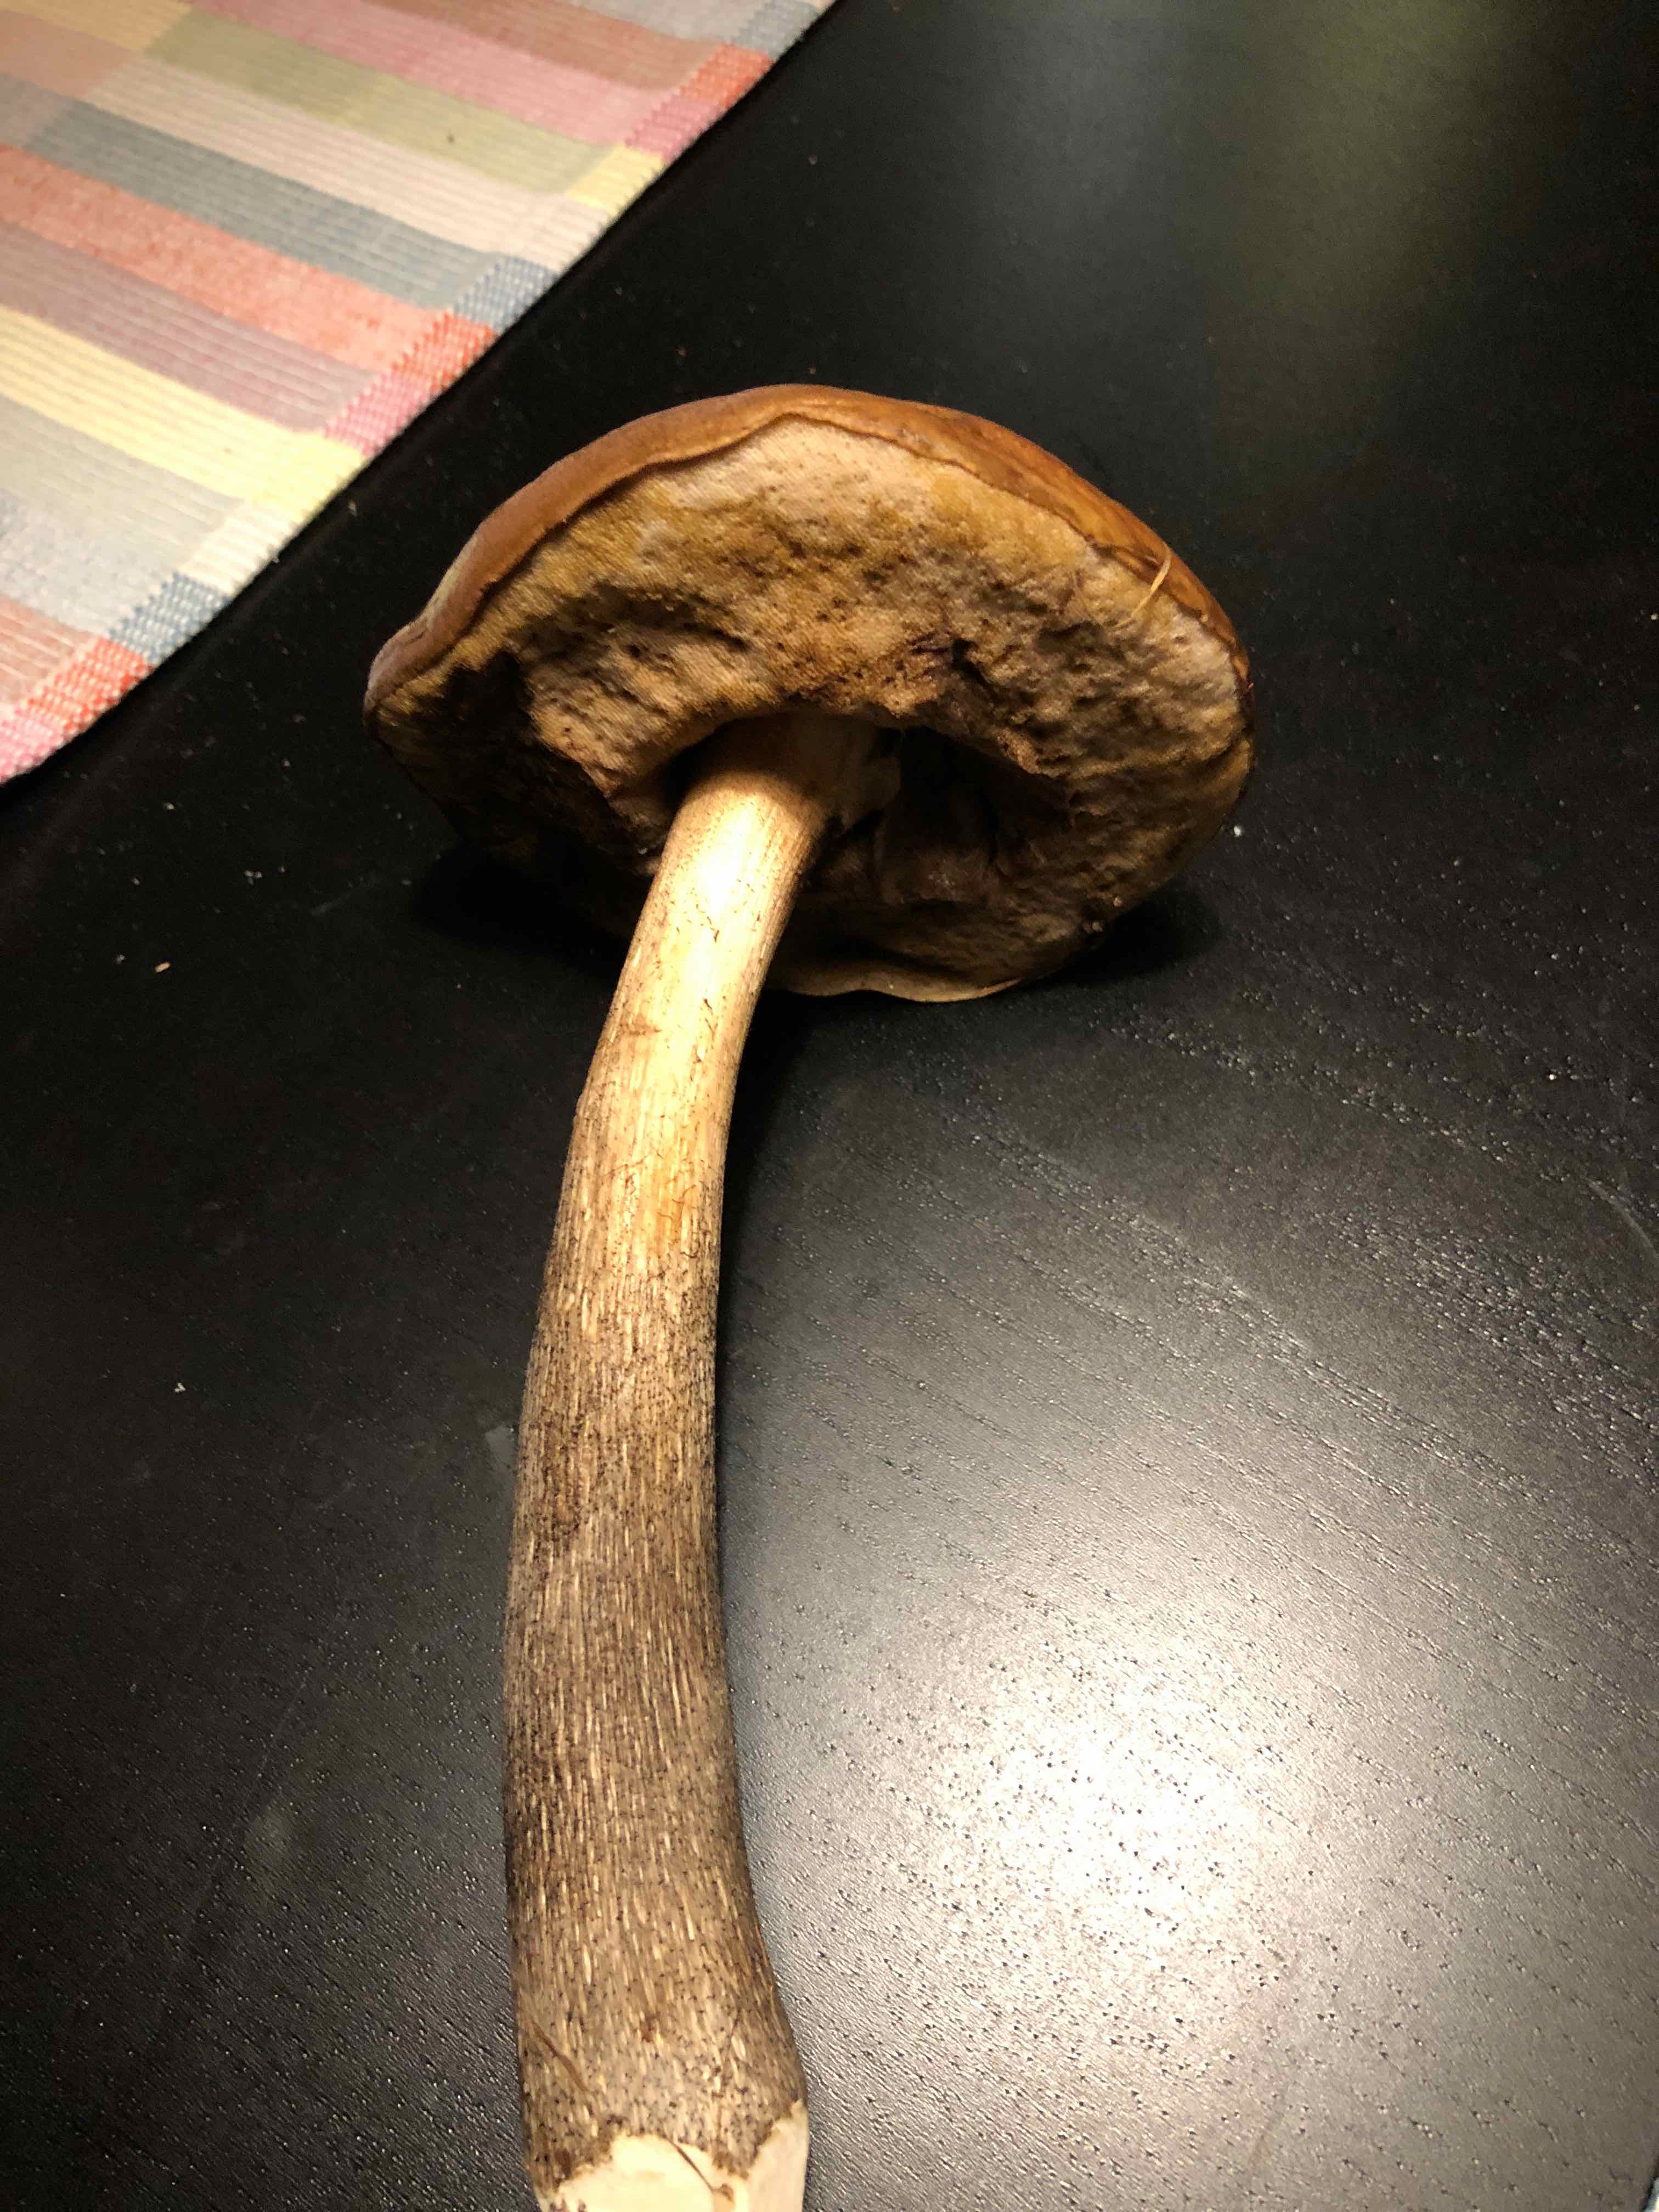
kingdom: Fungi
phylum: Basidiomycota
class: Agaricomycetes
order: Boletales
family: Boletaceae
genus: Leccinum
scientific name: Leccinum
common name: skælrørhat
